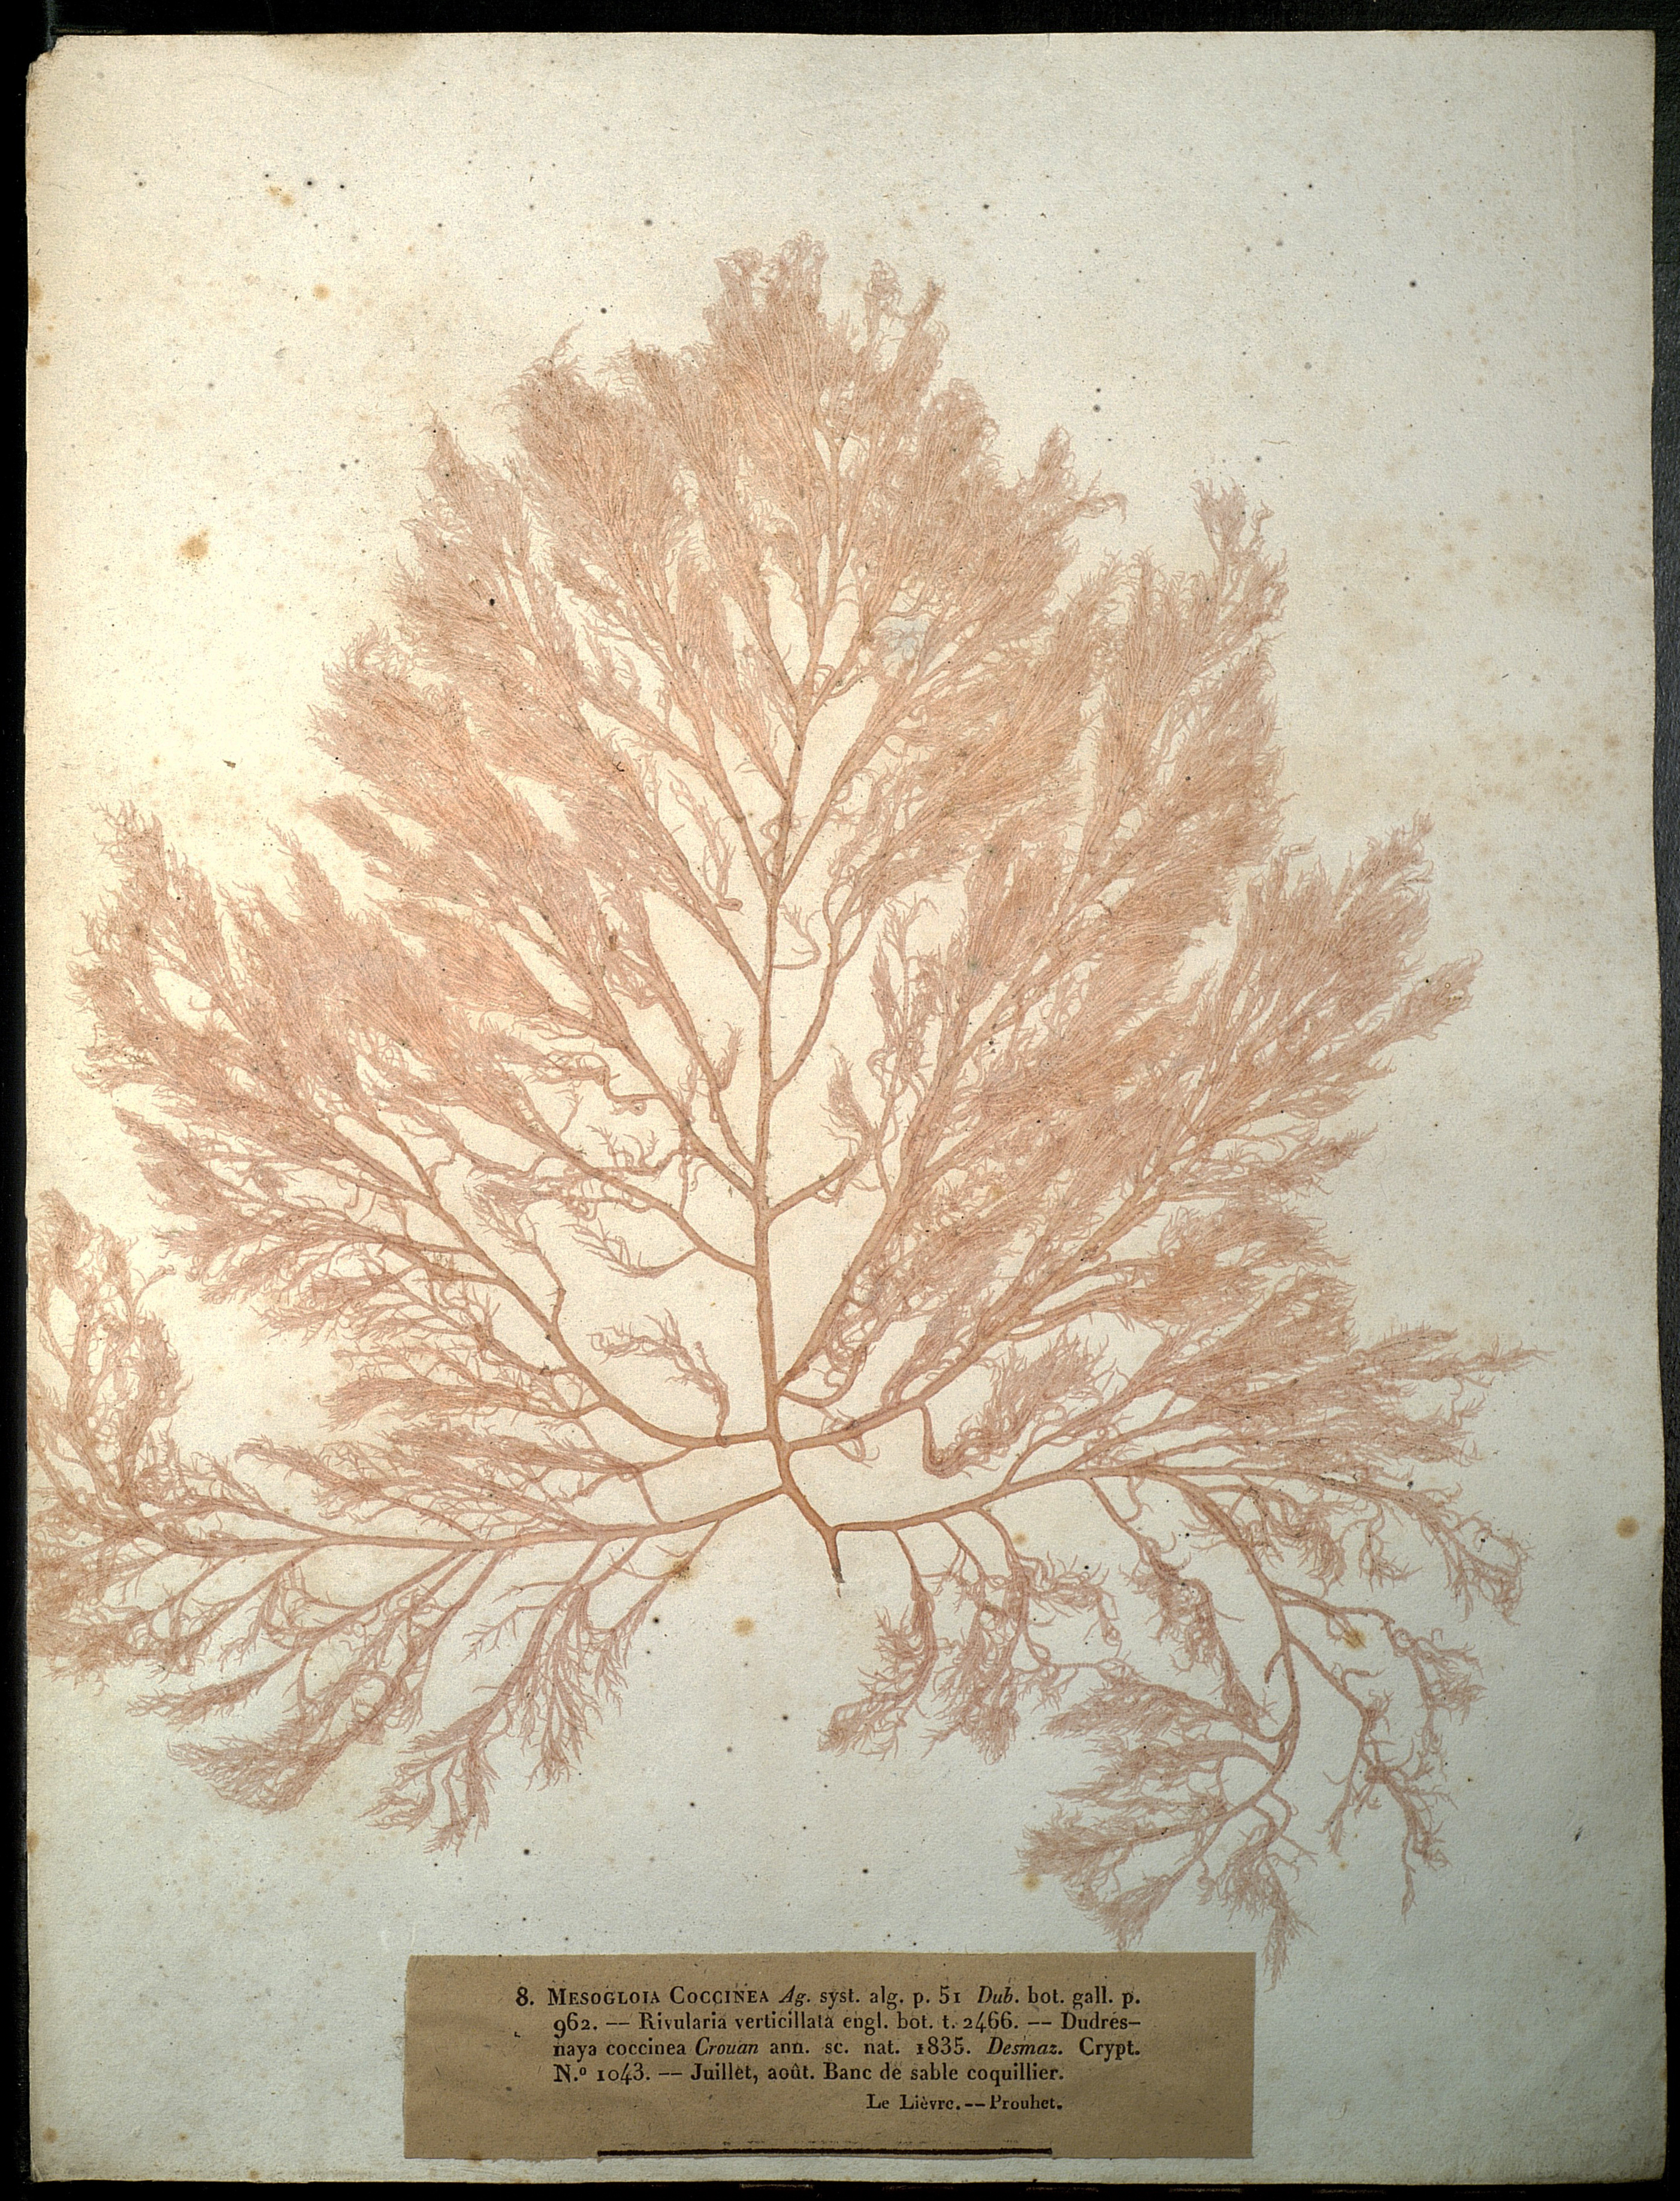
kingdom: Plantae
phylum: Rhodophyta
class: Florideophyceae
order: Gigartinales
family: Dumontiaceae
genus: Dudresnaya
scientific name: Dudresnaya verticillata
